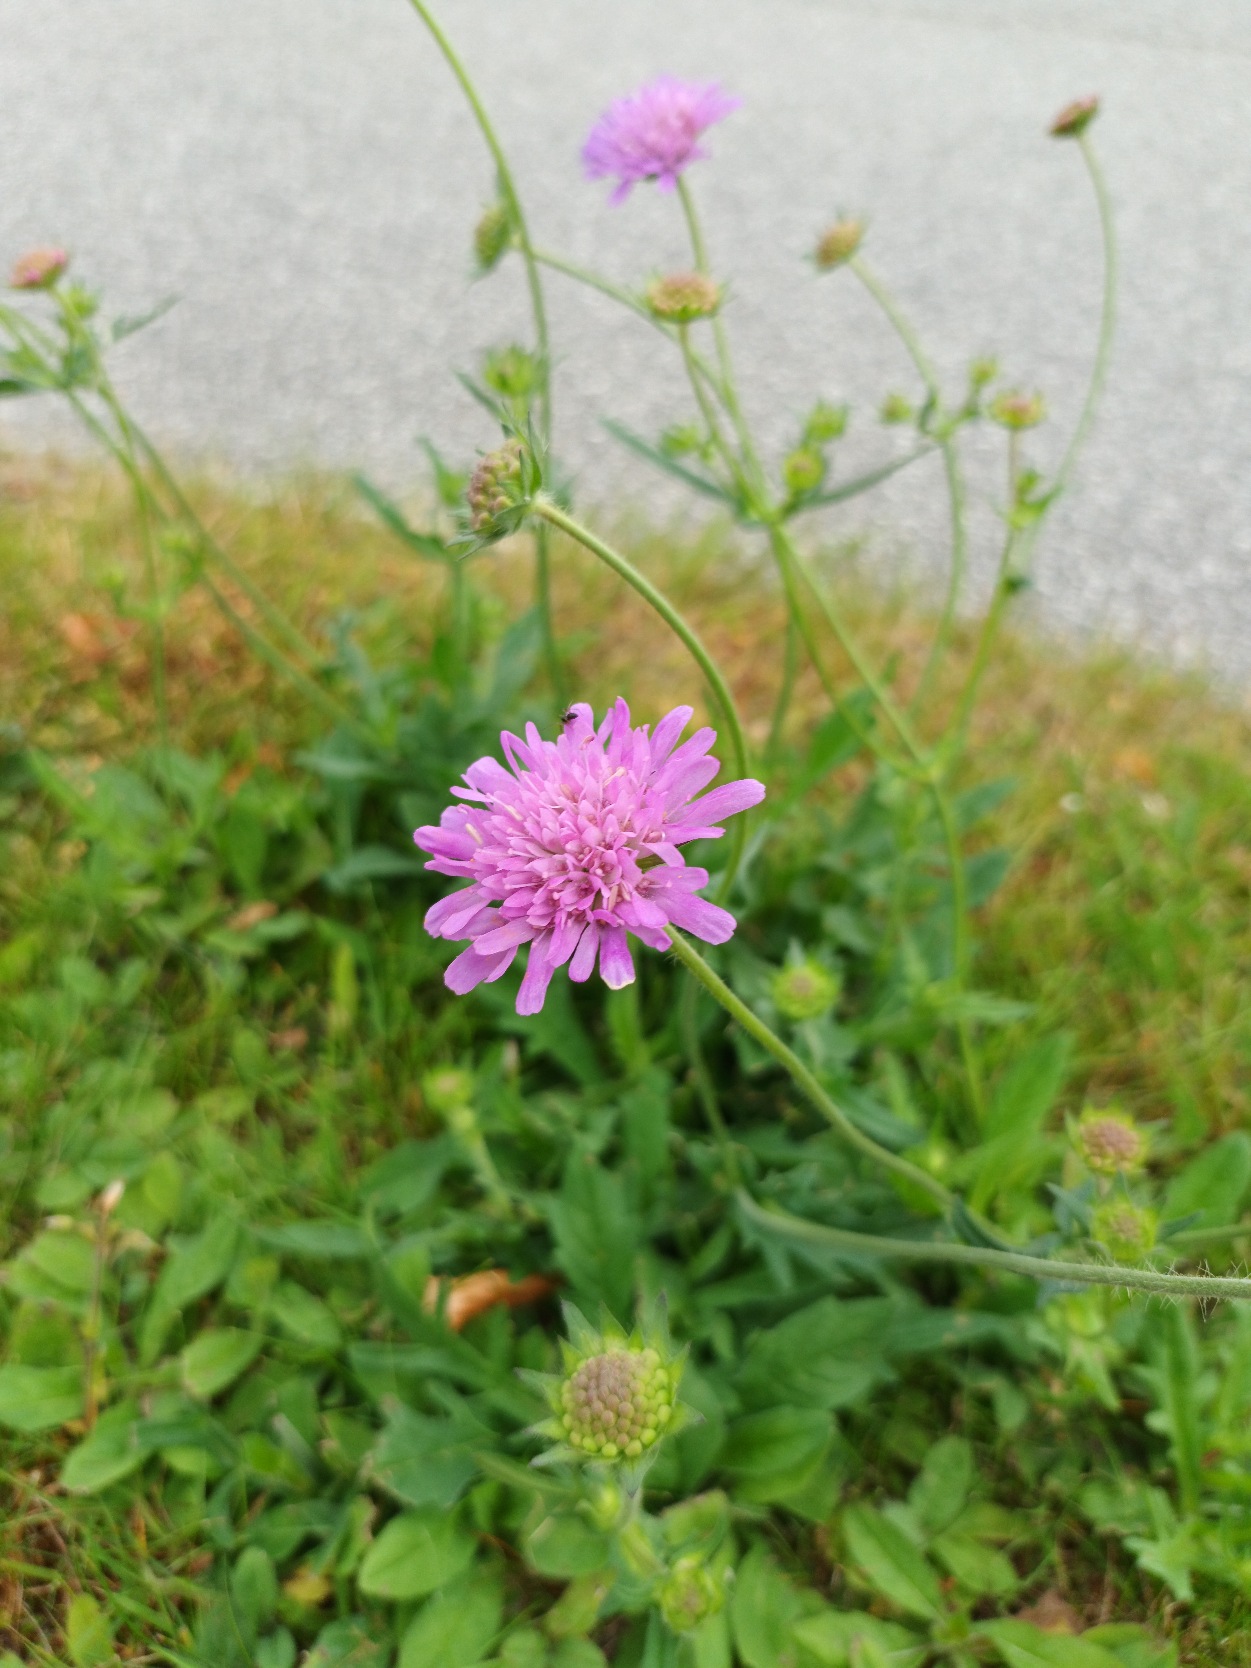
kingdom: Plantae
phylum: Tracheophyta
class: Magnoliopsida
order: Dipsacales
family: Caprifoliaceae
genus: Knautia
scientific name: Knautia arvensis
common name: Blåhat
